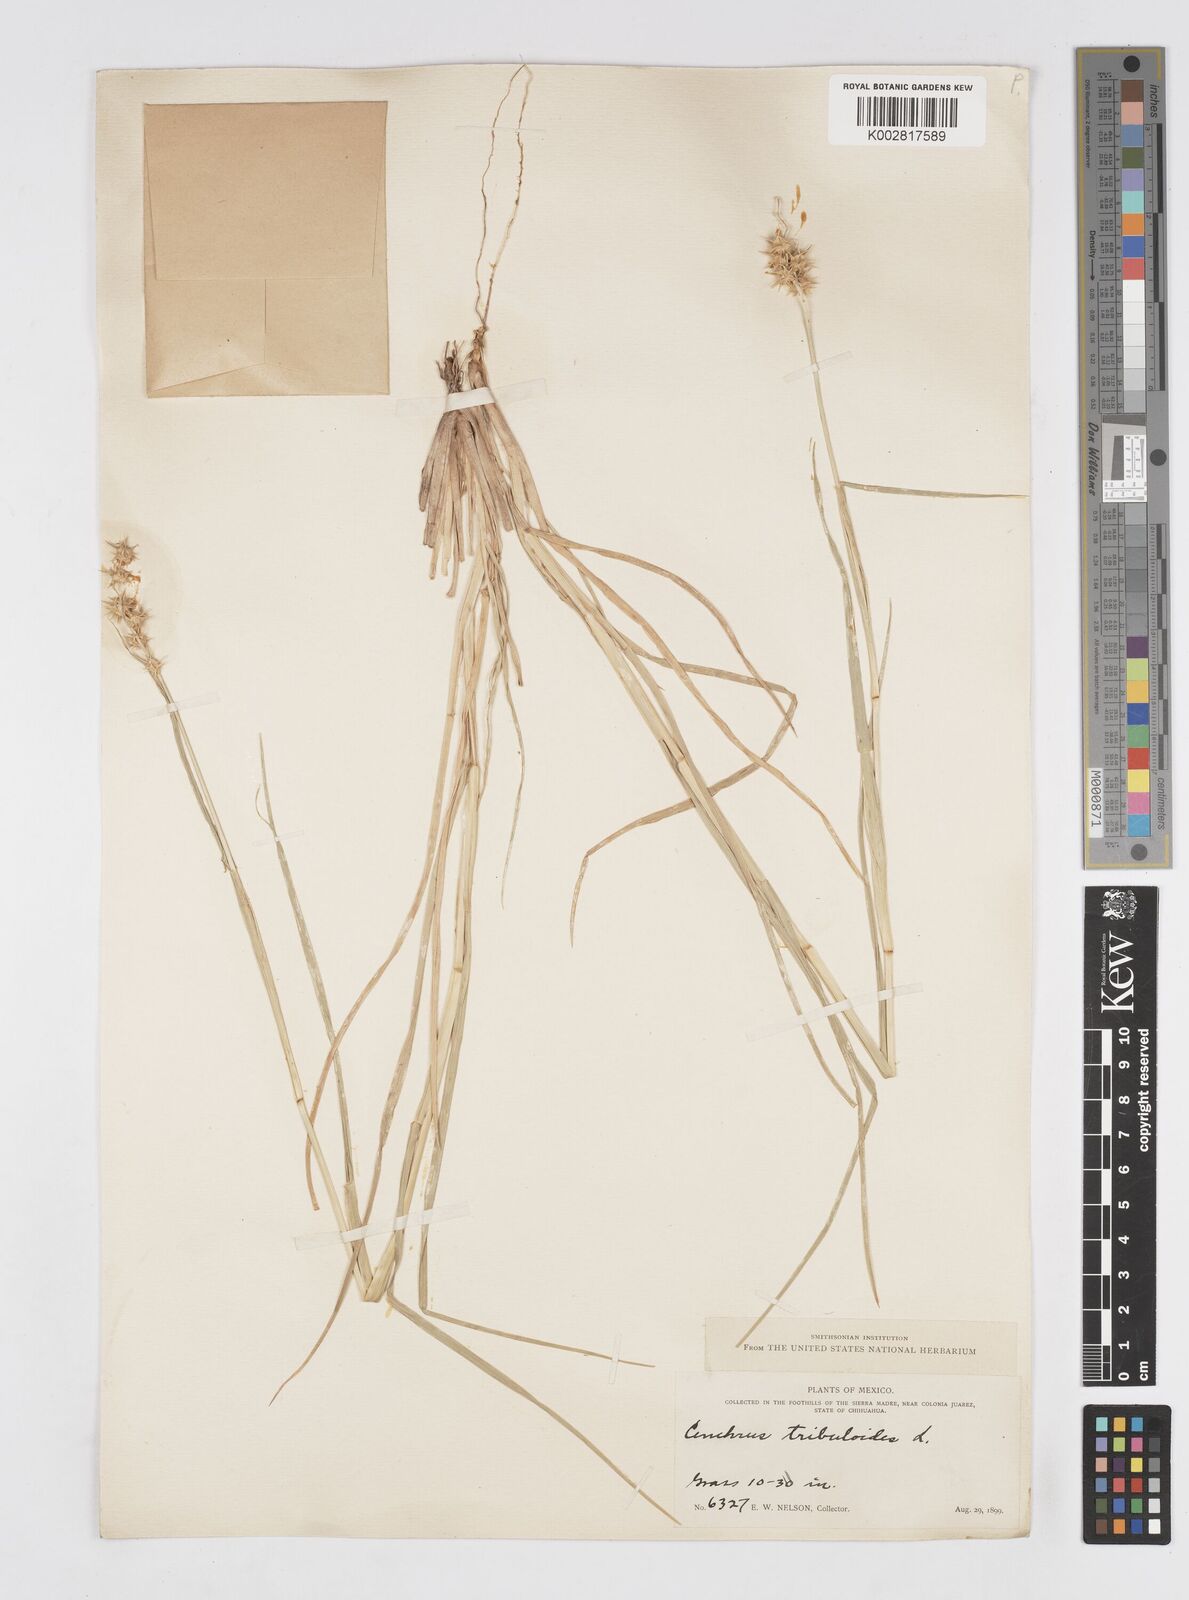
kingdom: Plantae
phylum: Tracheophyta
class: Liliopsida
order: Poales
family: Poaceae
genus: Cenchrus
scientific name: Cenchrus spinifex
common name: Coast sandbur
